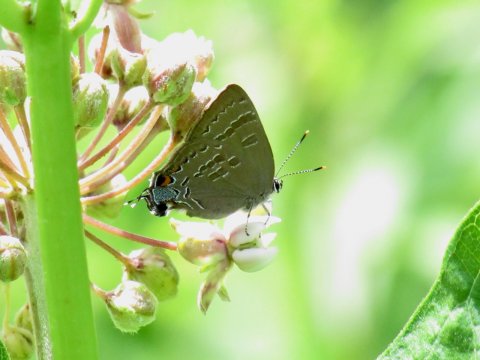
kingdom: Animalia
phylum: Arthropoda
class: Insecta
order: Lepidoptera
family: Lycaenidae
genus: Strymon
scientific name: Strymon caryaevorus
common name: Hickory Hairstreak
